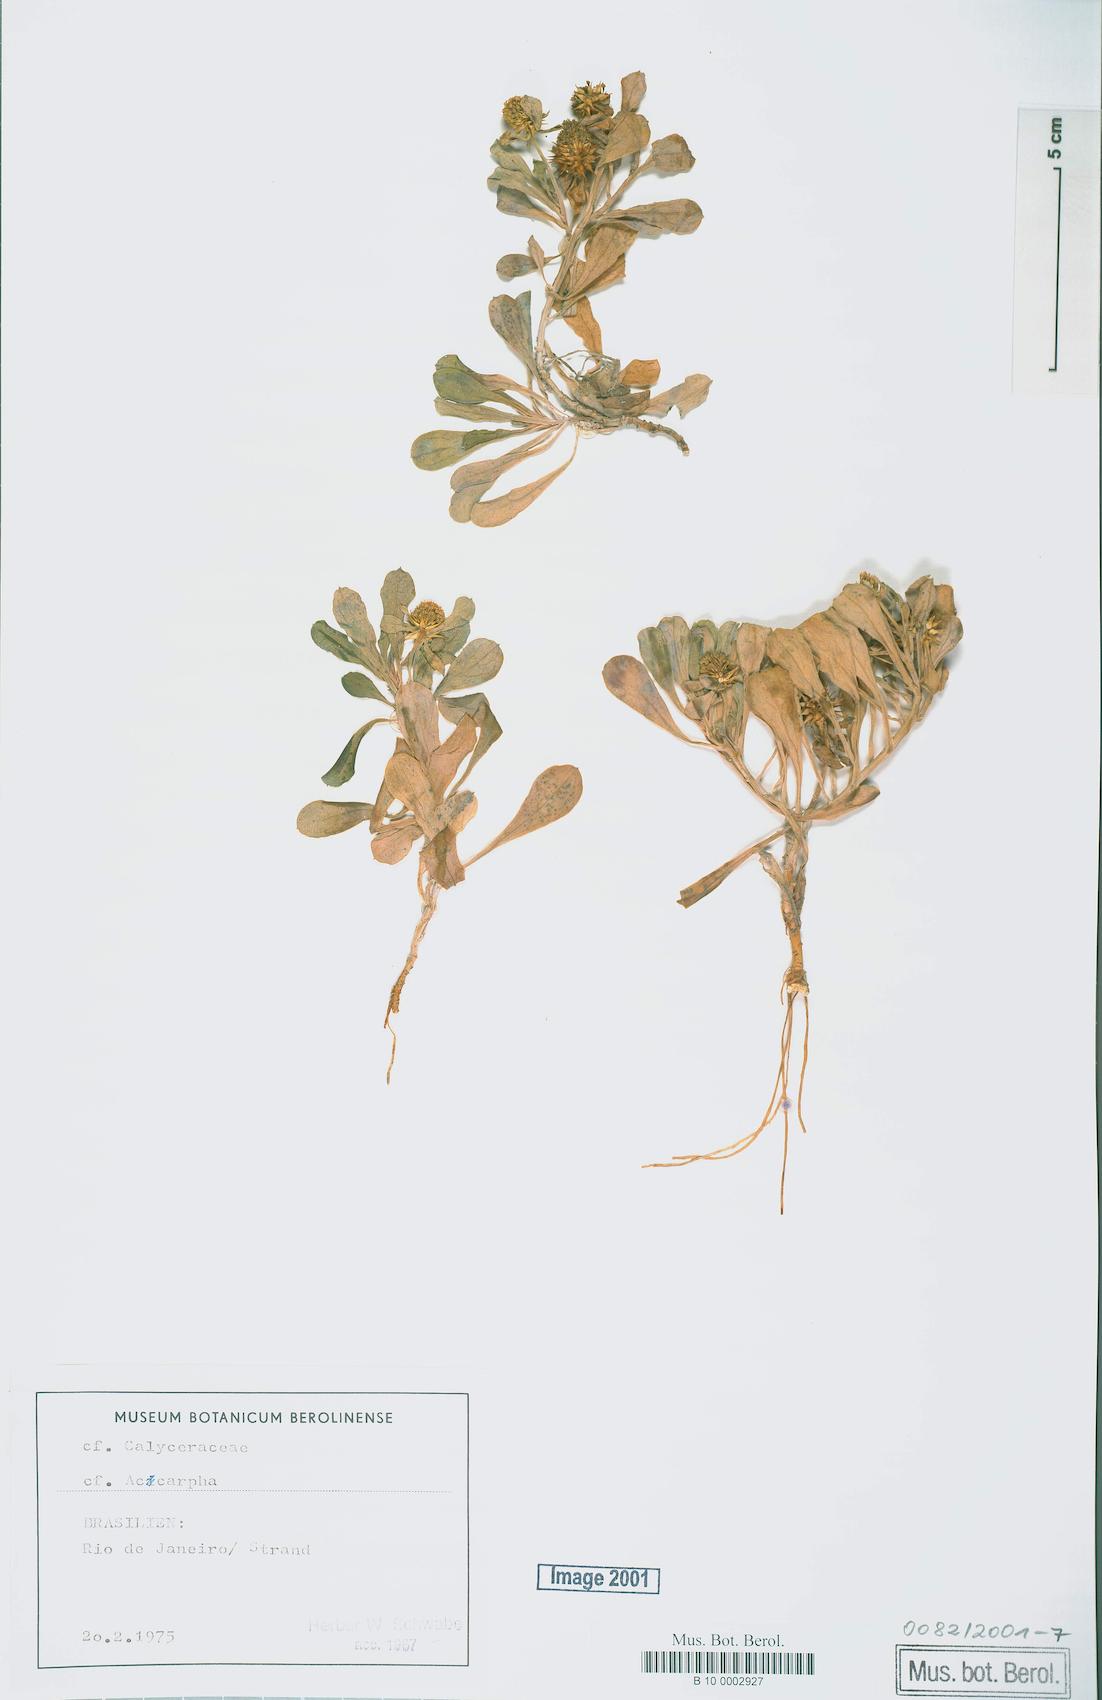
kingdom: Plantae
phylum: Tracheophyta
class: Magnoliopsida
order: Asterales
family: Calyceraceae
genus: Acicarpha
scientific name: Acicarpha
